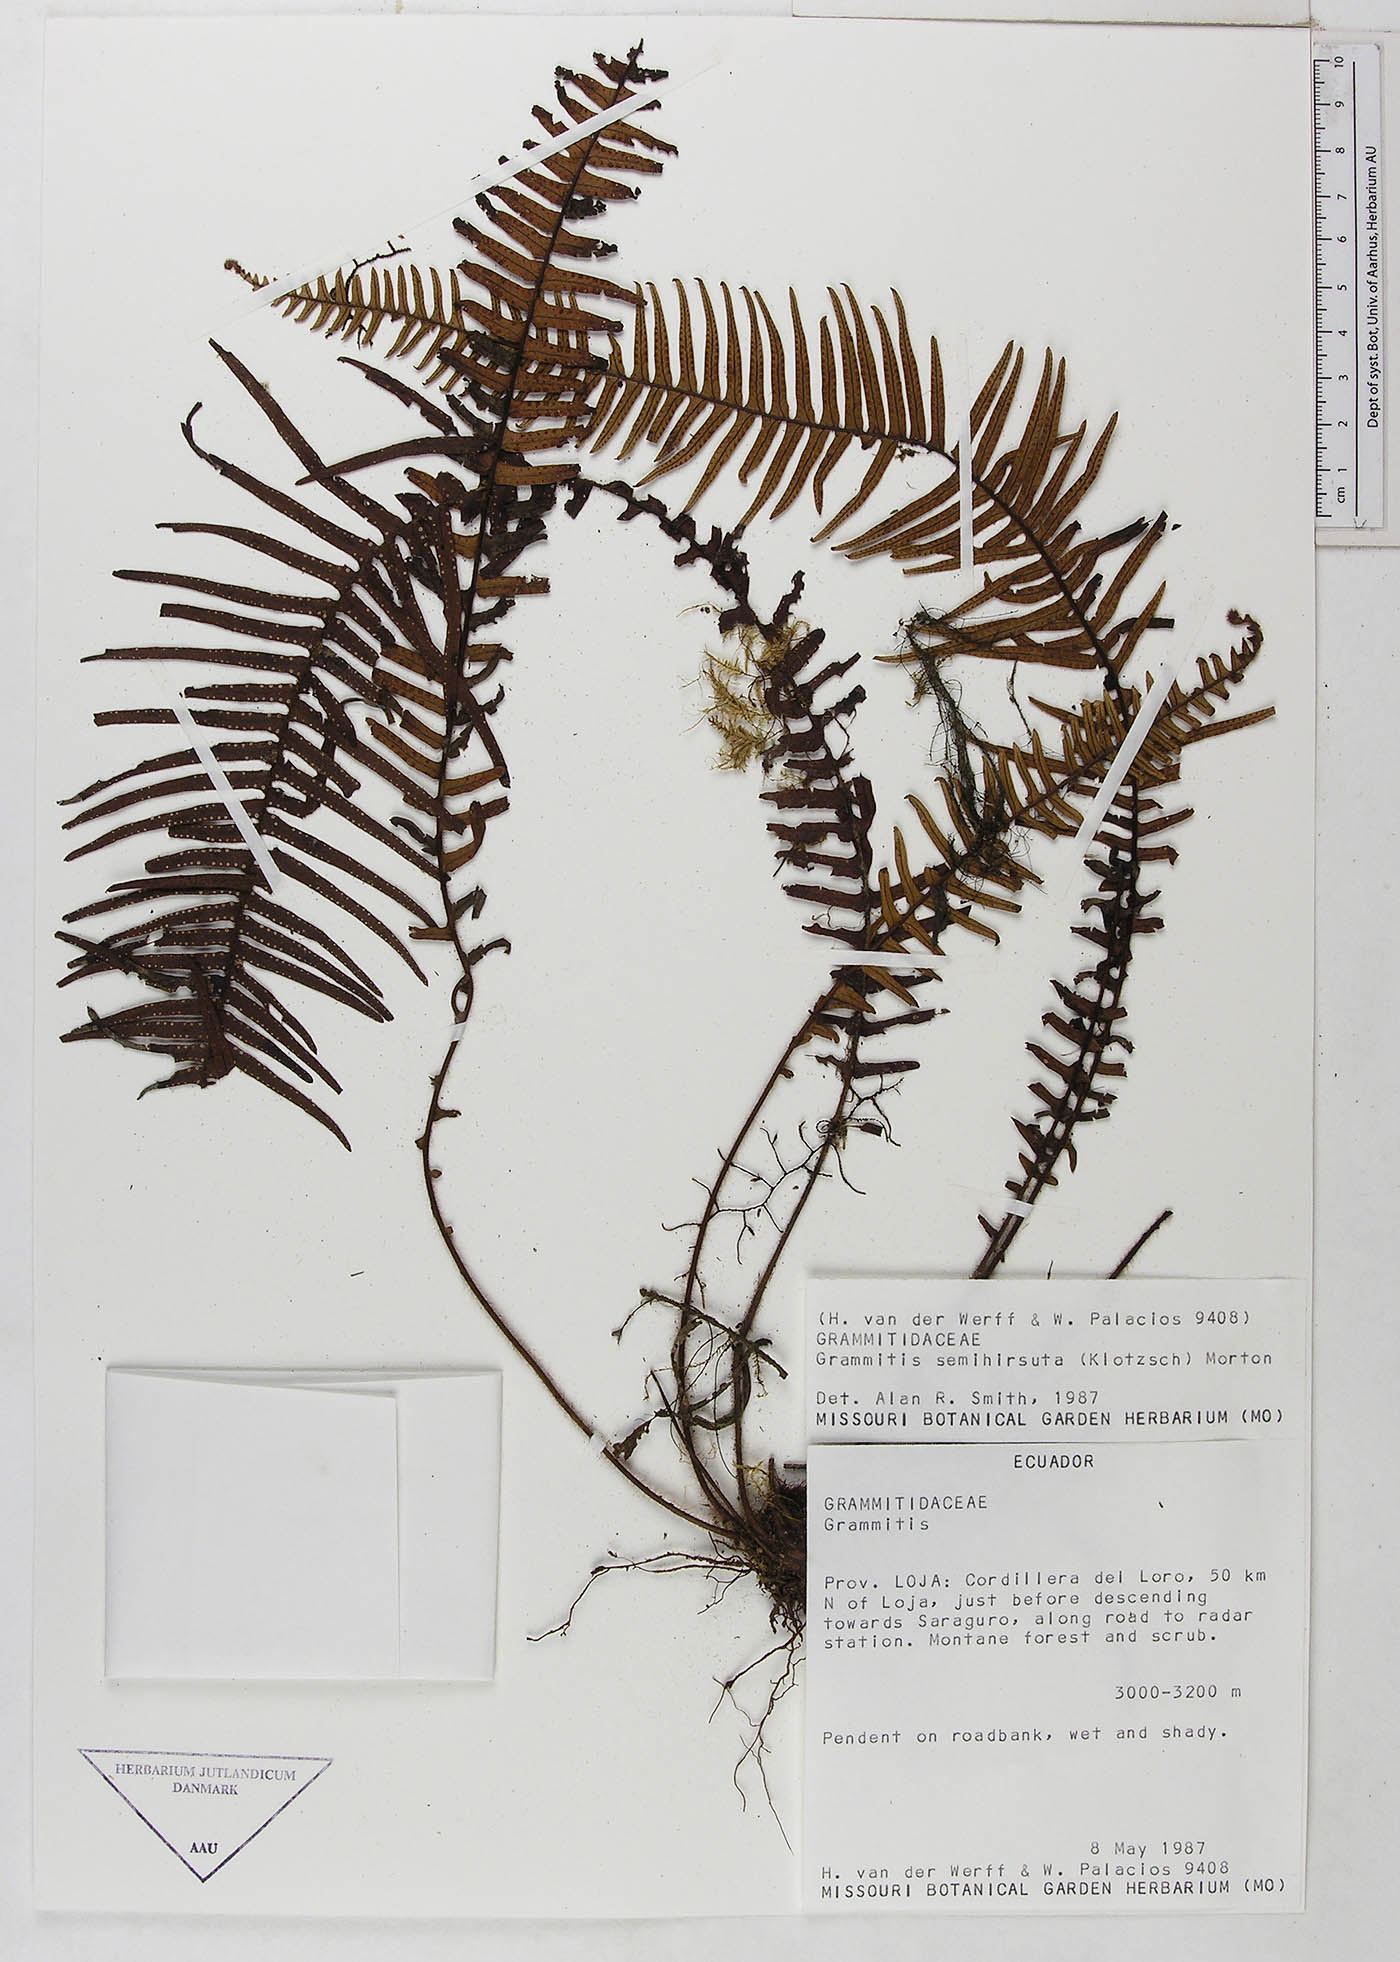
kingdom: Plantae
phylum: Tracheophyta
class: Polypodiopsida
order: Polypodiales
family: Polypodiaceae
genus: Mycopteris
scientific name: Mycopteris semihirsuta
